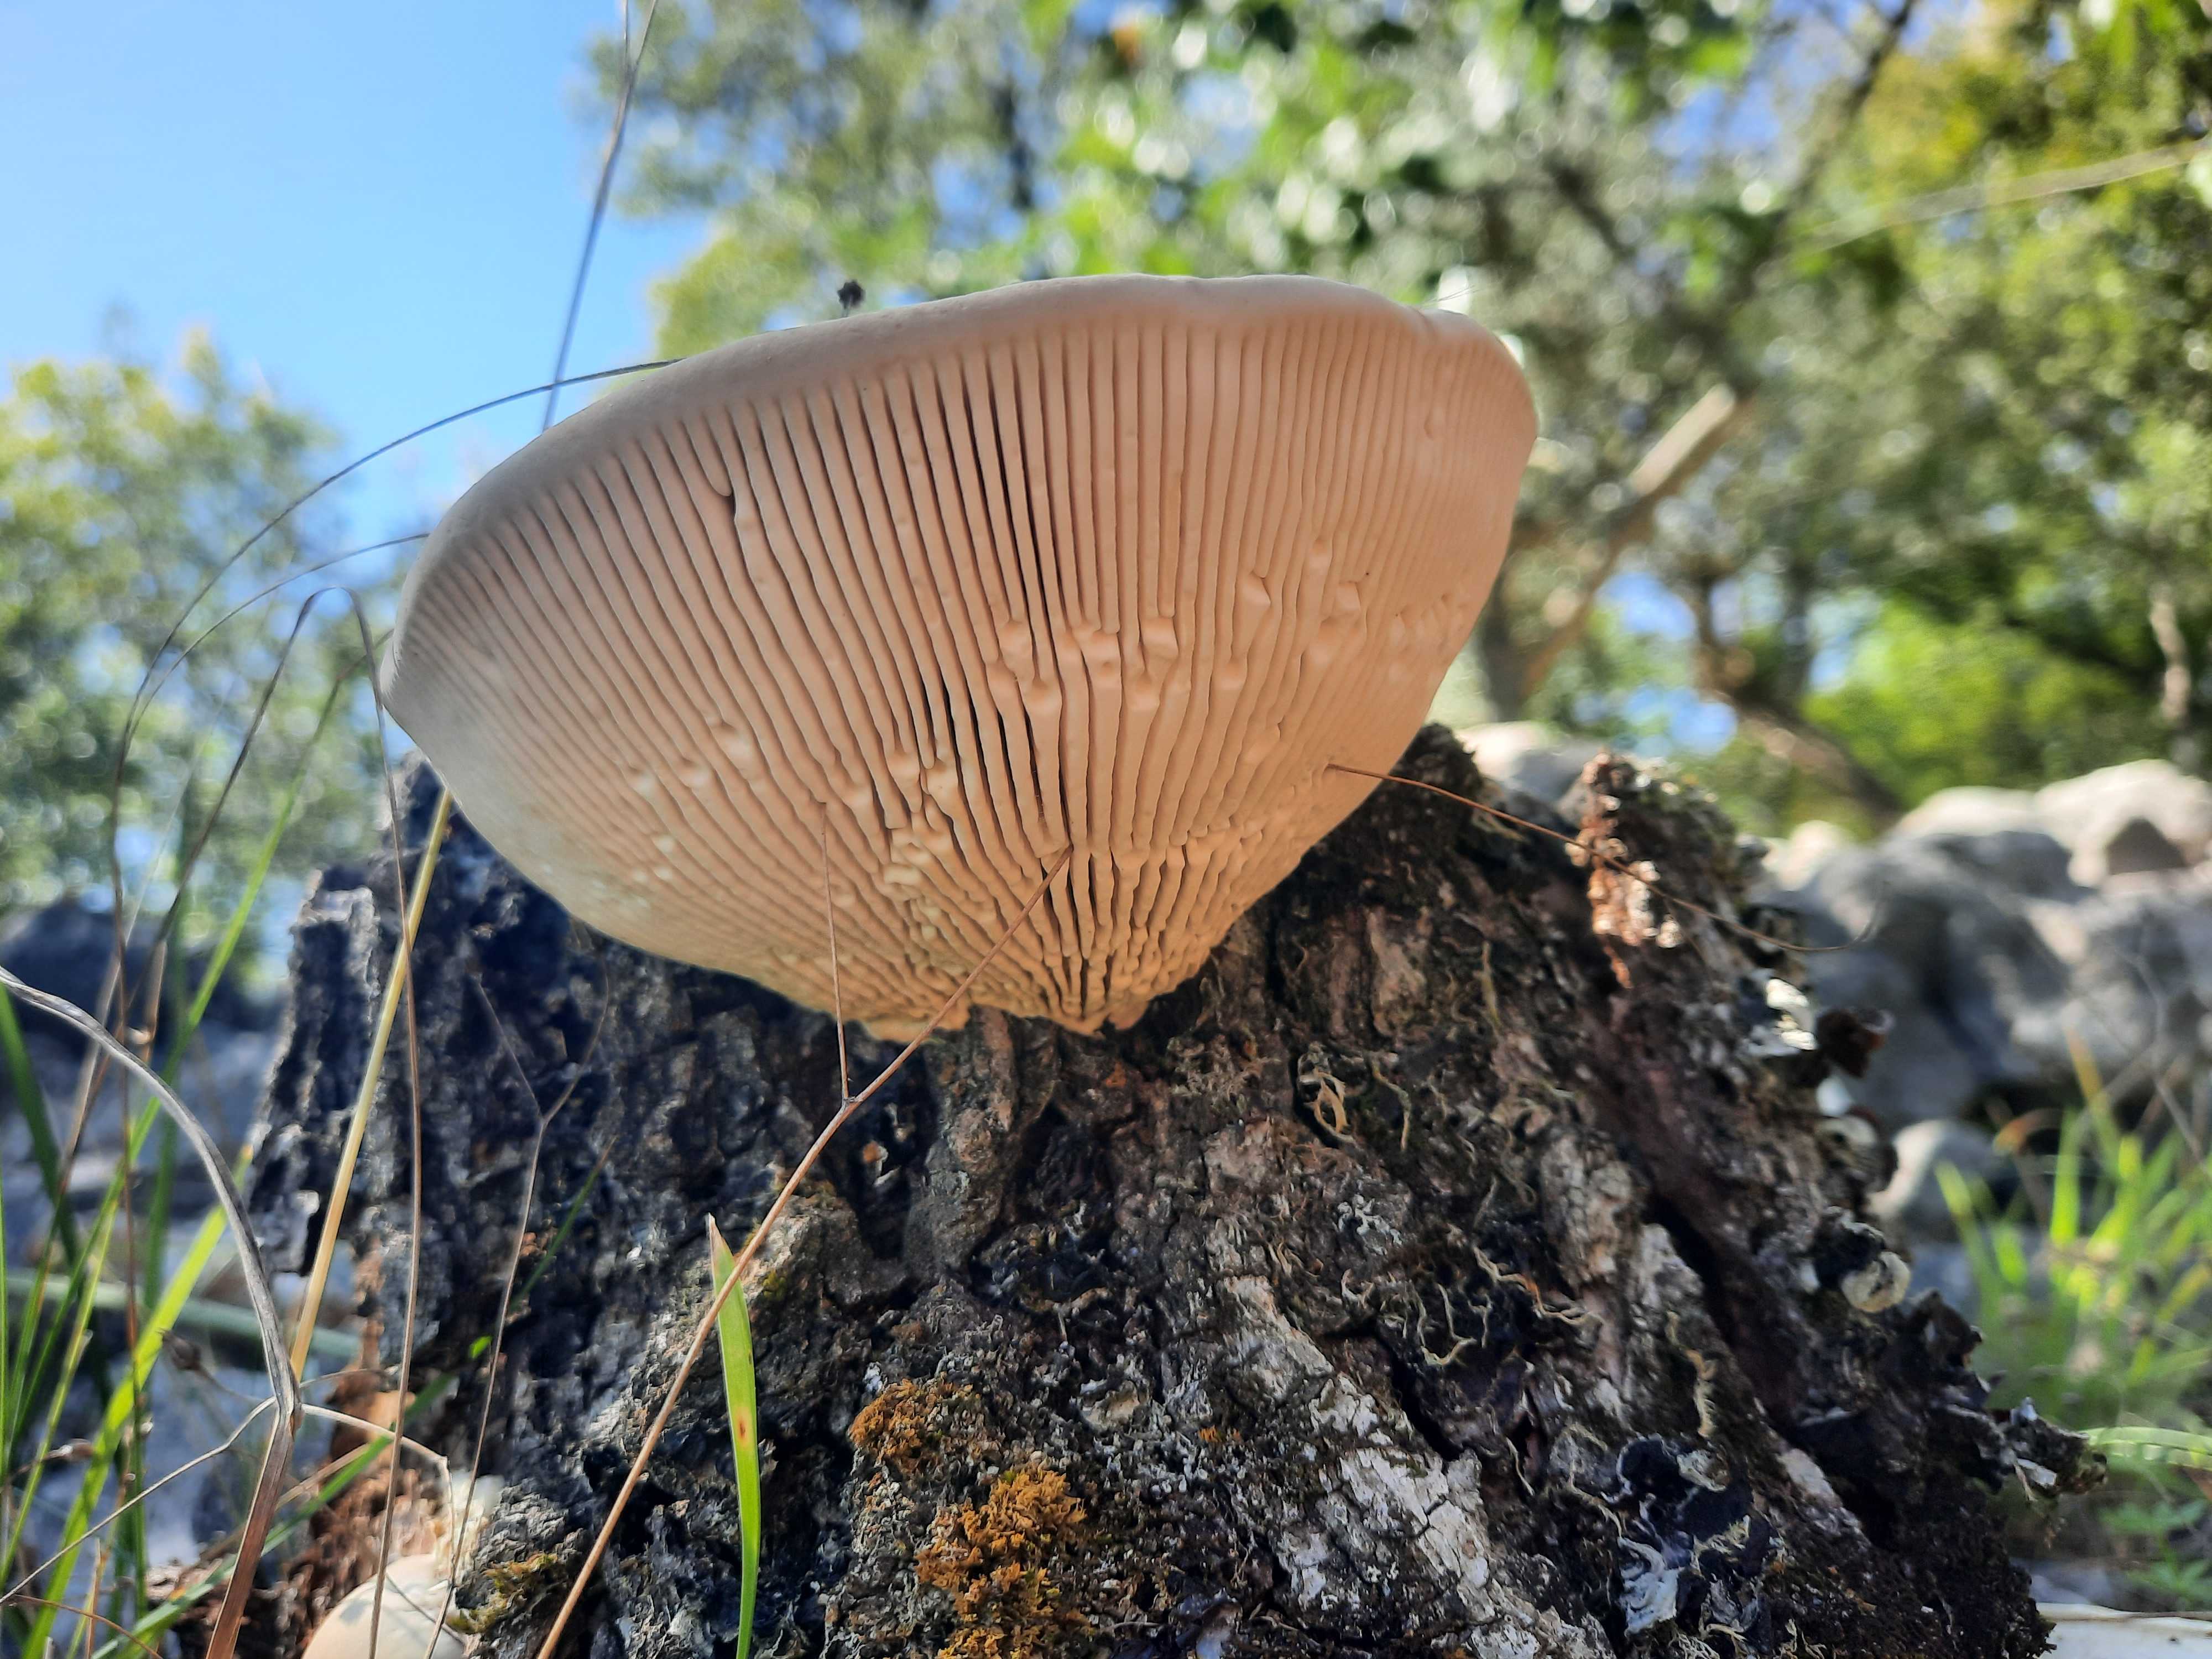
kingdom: Fungi
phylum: Basidiomycota
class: Agaricomycetes
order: Polyporales
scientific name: Polyporales
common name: poresvampordenen
